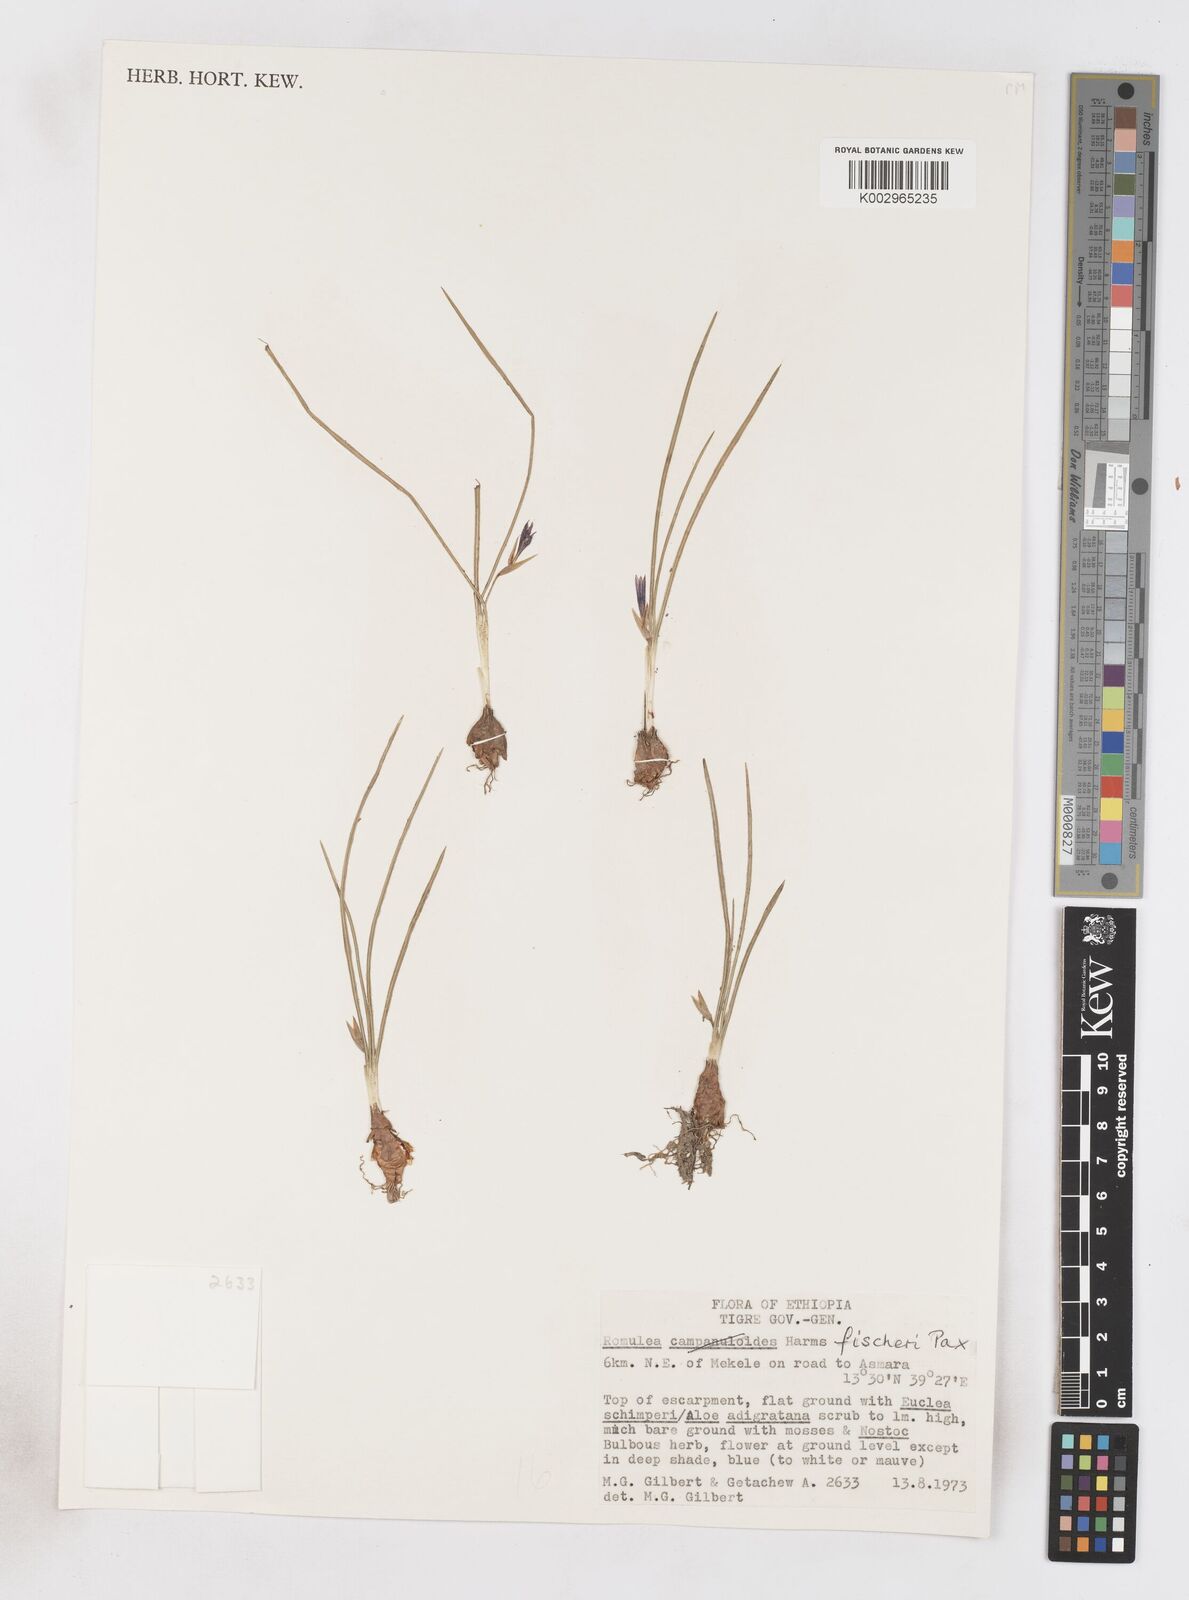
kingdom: Plantae
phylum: Tracheophyta
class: Liliopsida
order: Asparagales
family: Iridaceae
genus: Romulea
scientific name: Romulea fischeri
